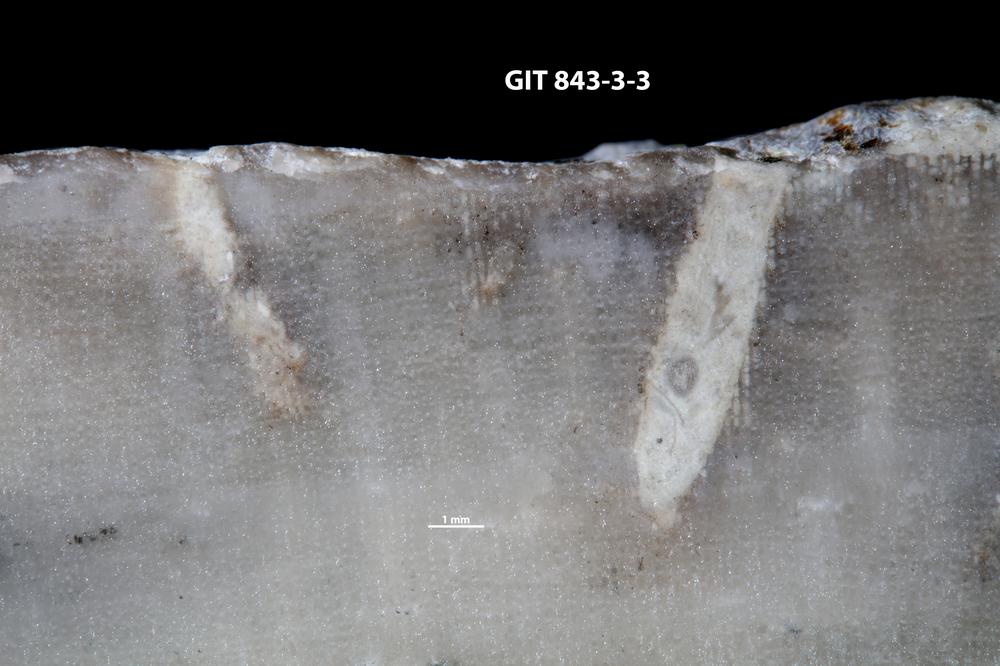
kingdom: Animalia
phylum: Sipuncula
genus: Trypanites
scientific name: Trypanites
